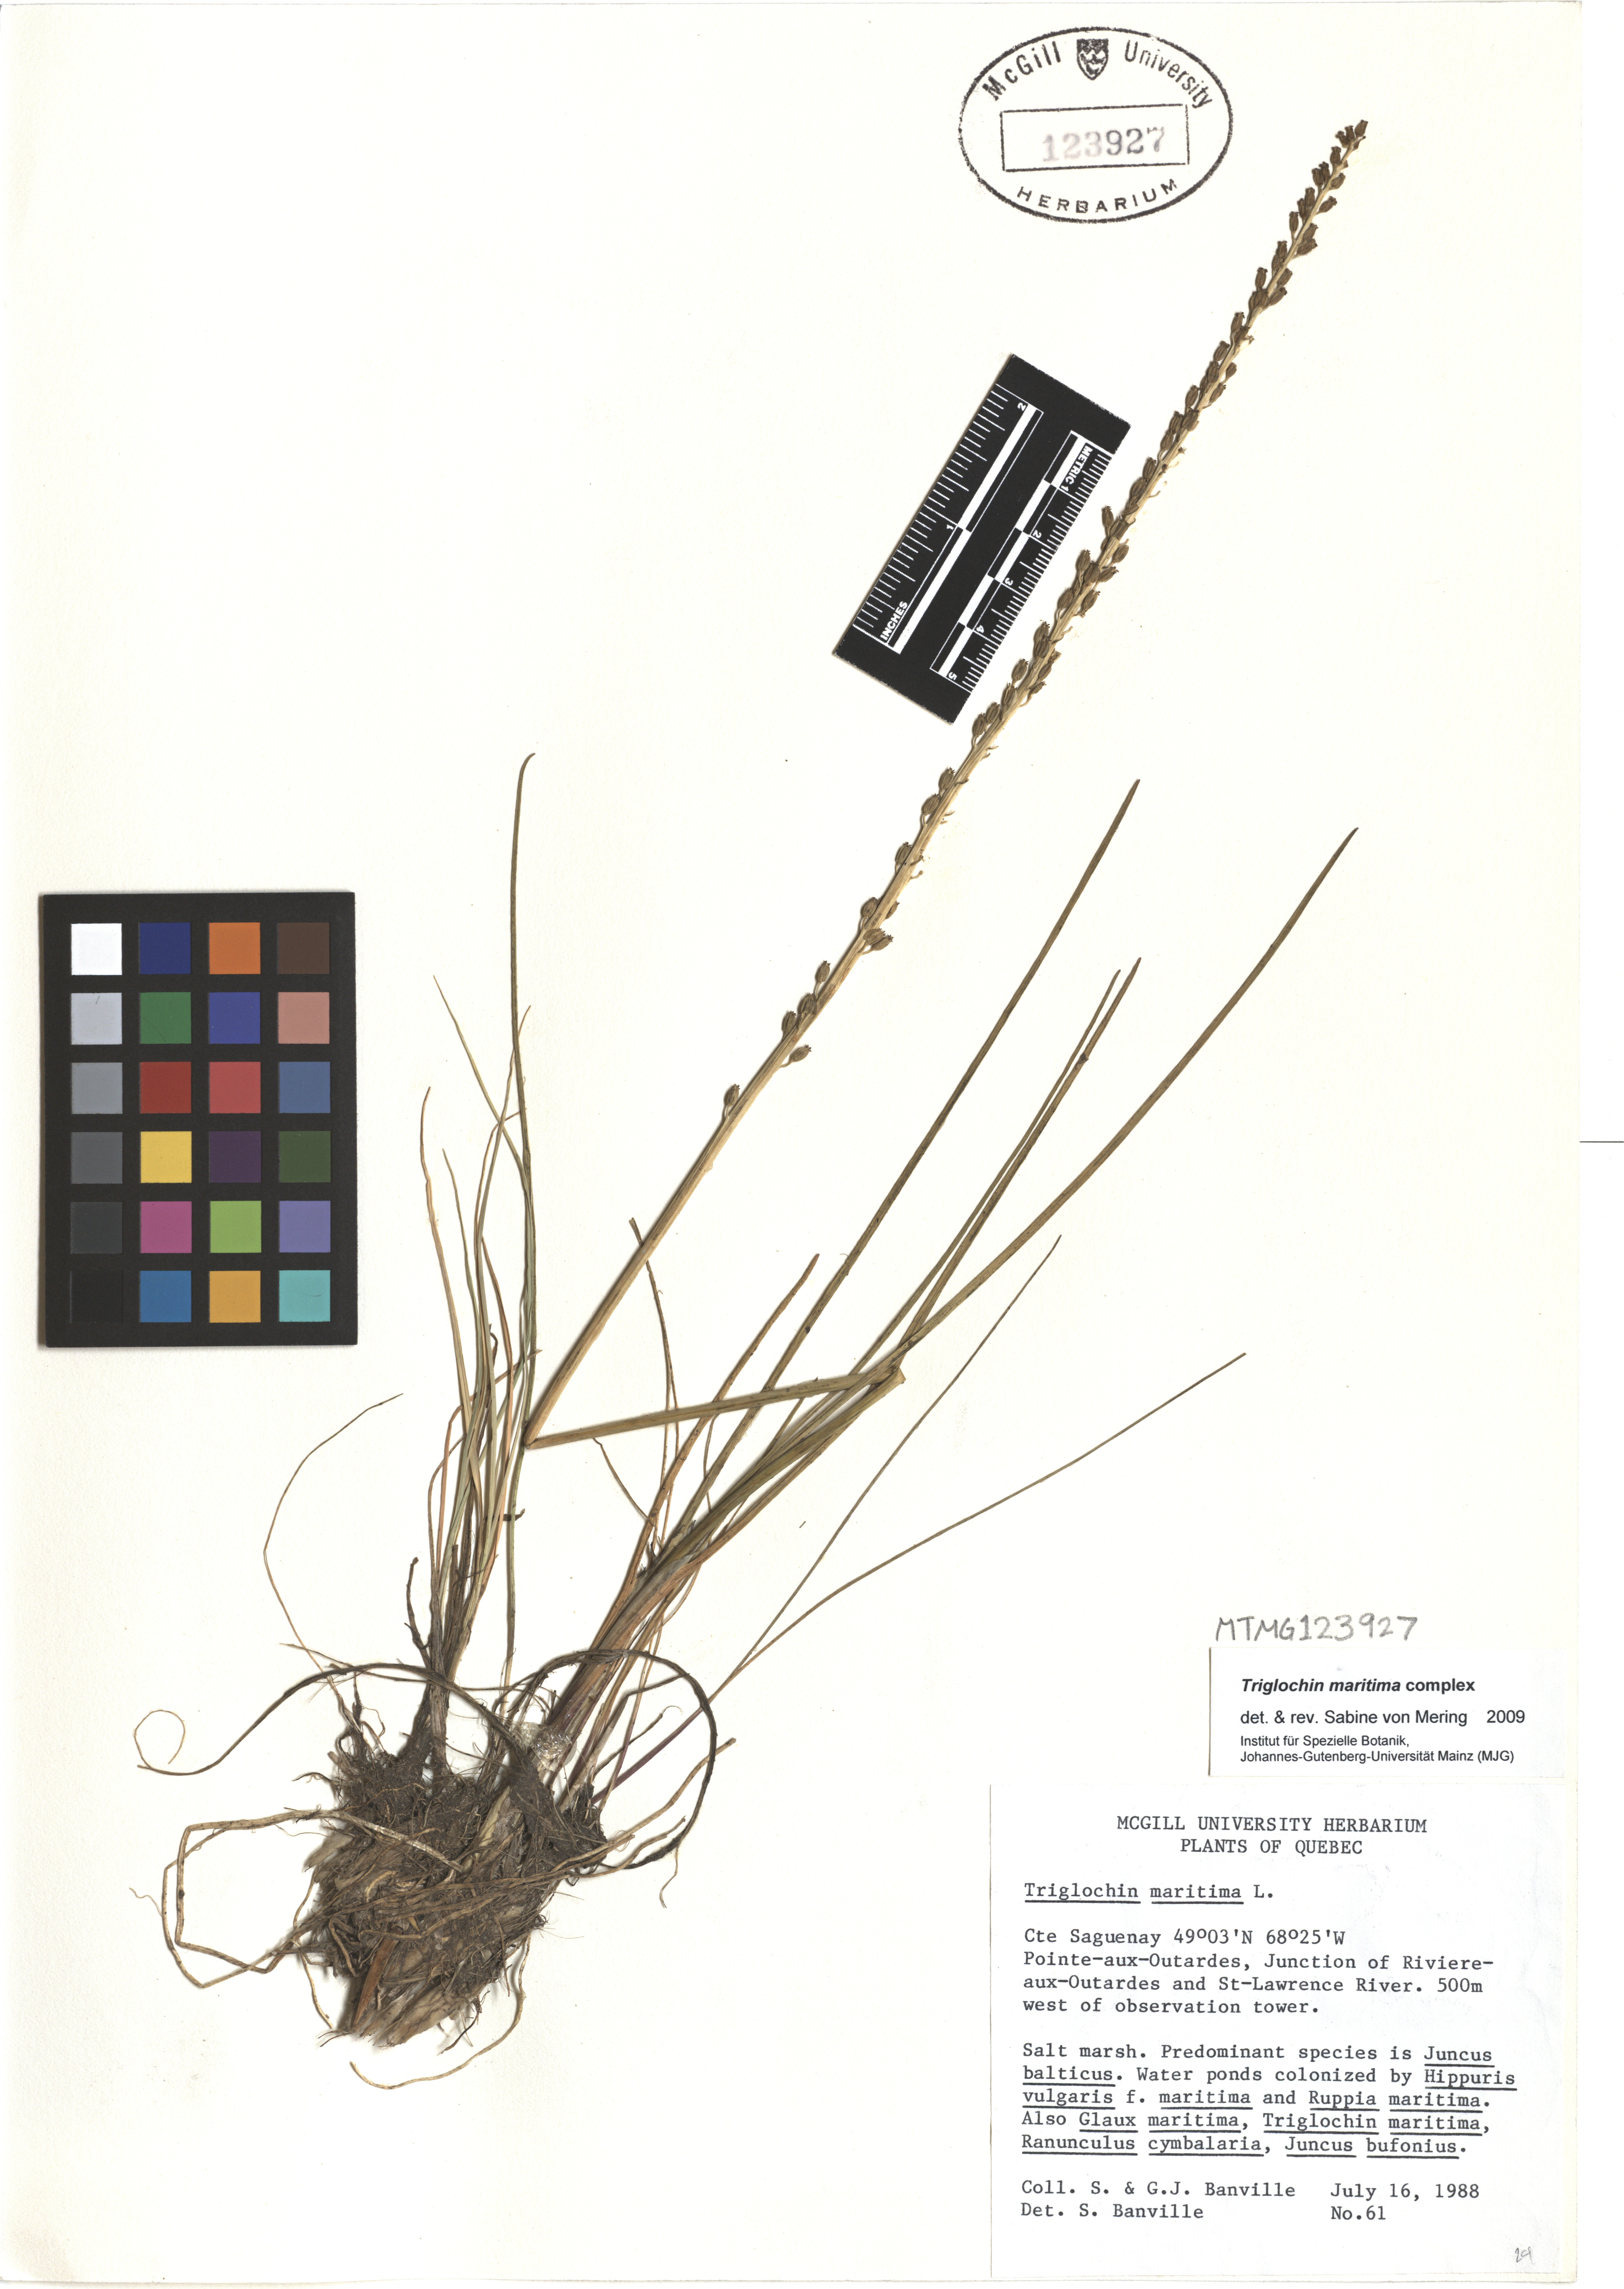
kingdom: Plantae
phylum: Tracheophyta
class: Liliopsida
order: Alismatales
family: Juncaginaceae
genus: Triglochin
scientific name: Triglochin maritima
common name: Sea arrowgrass
